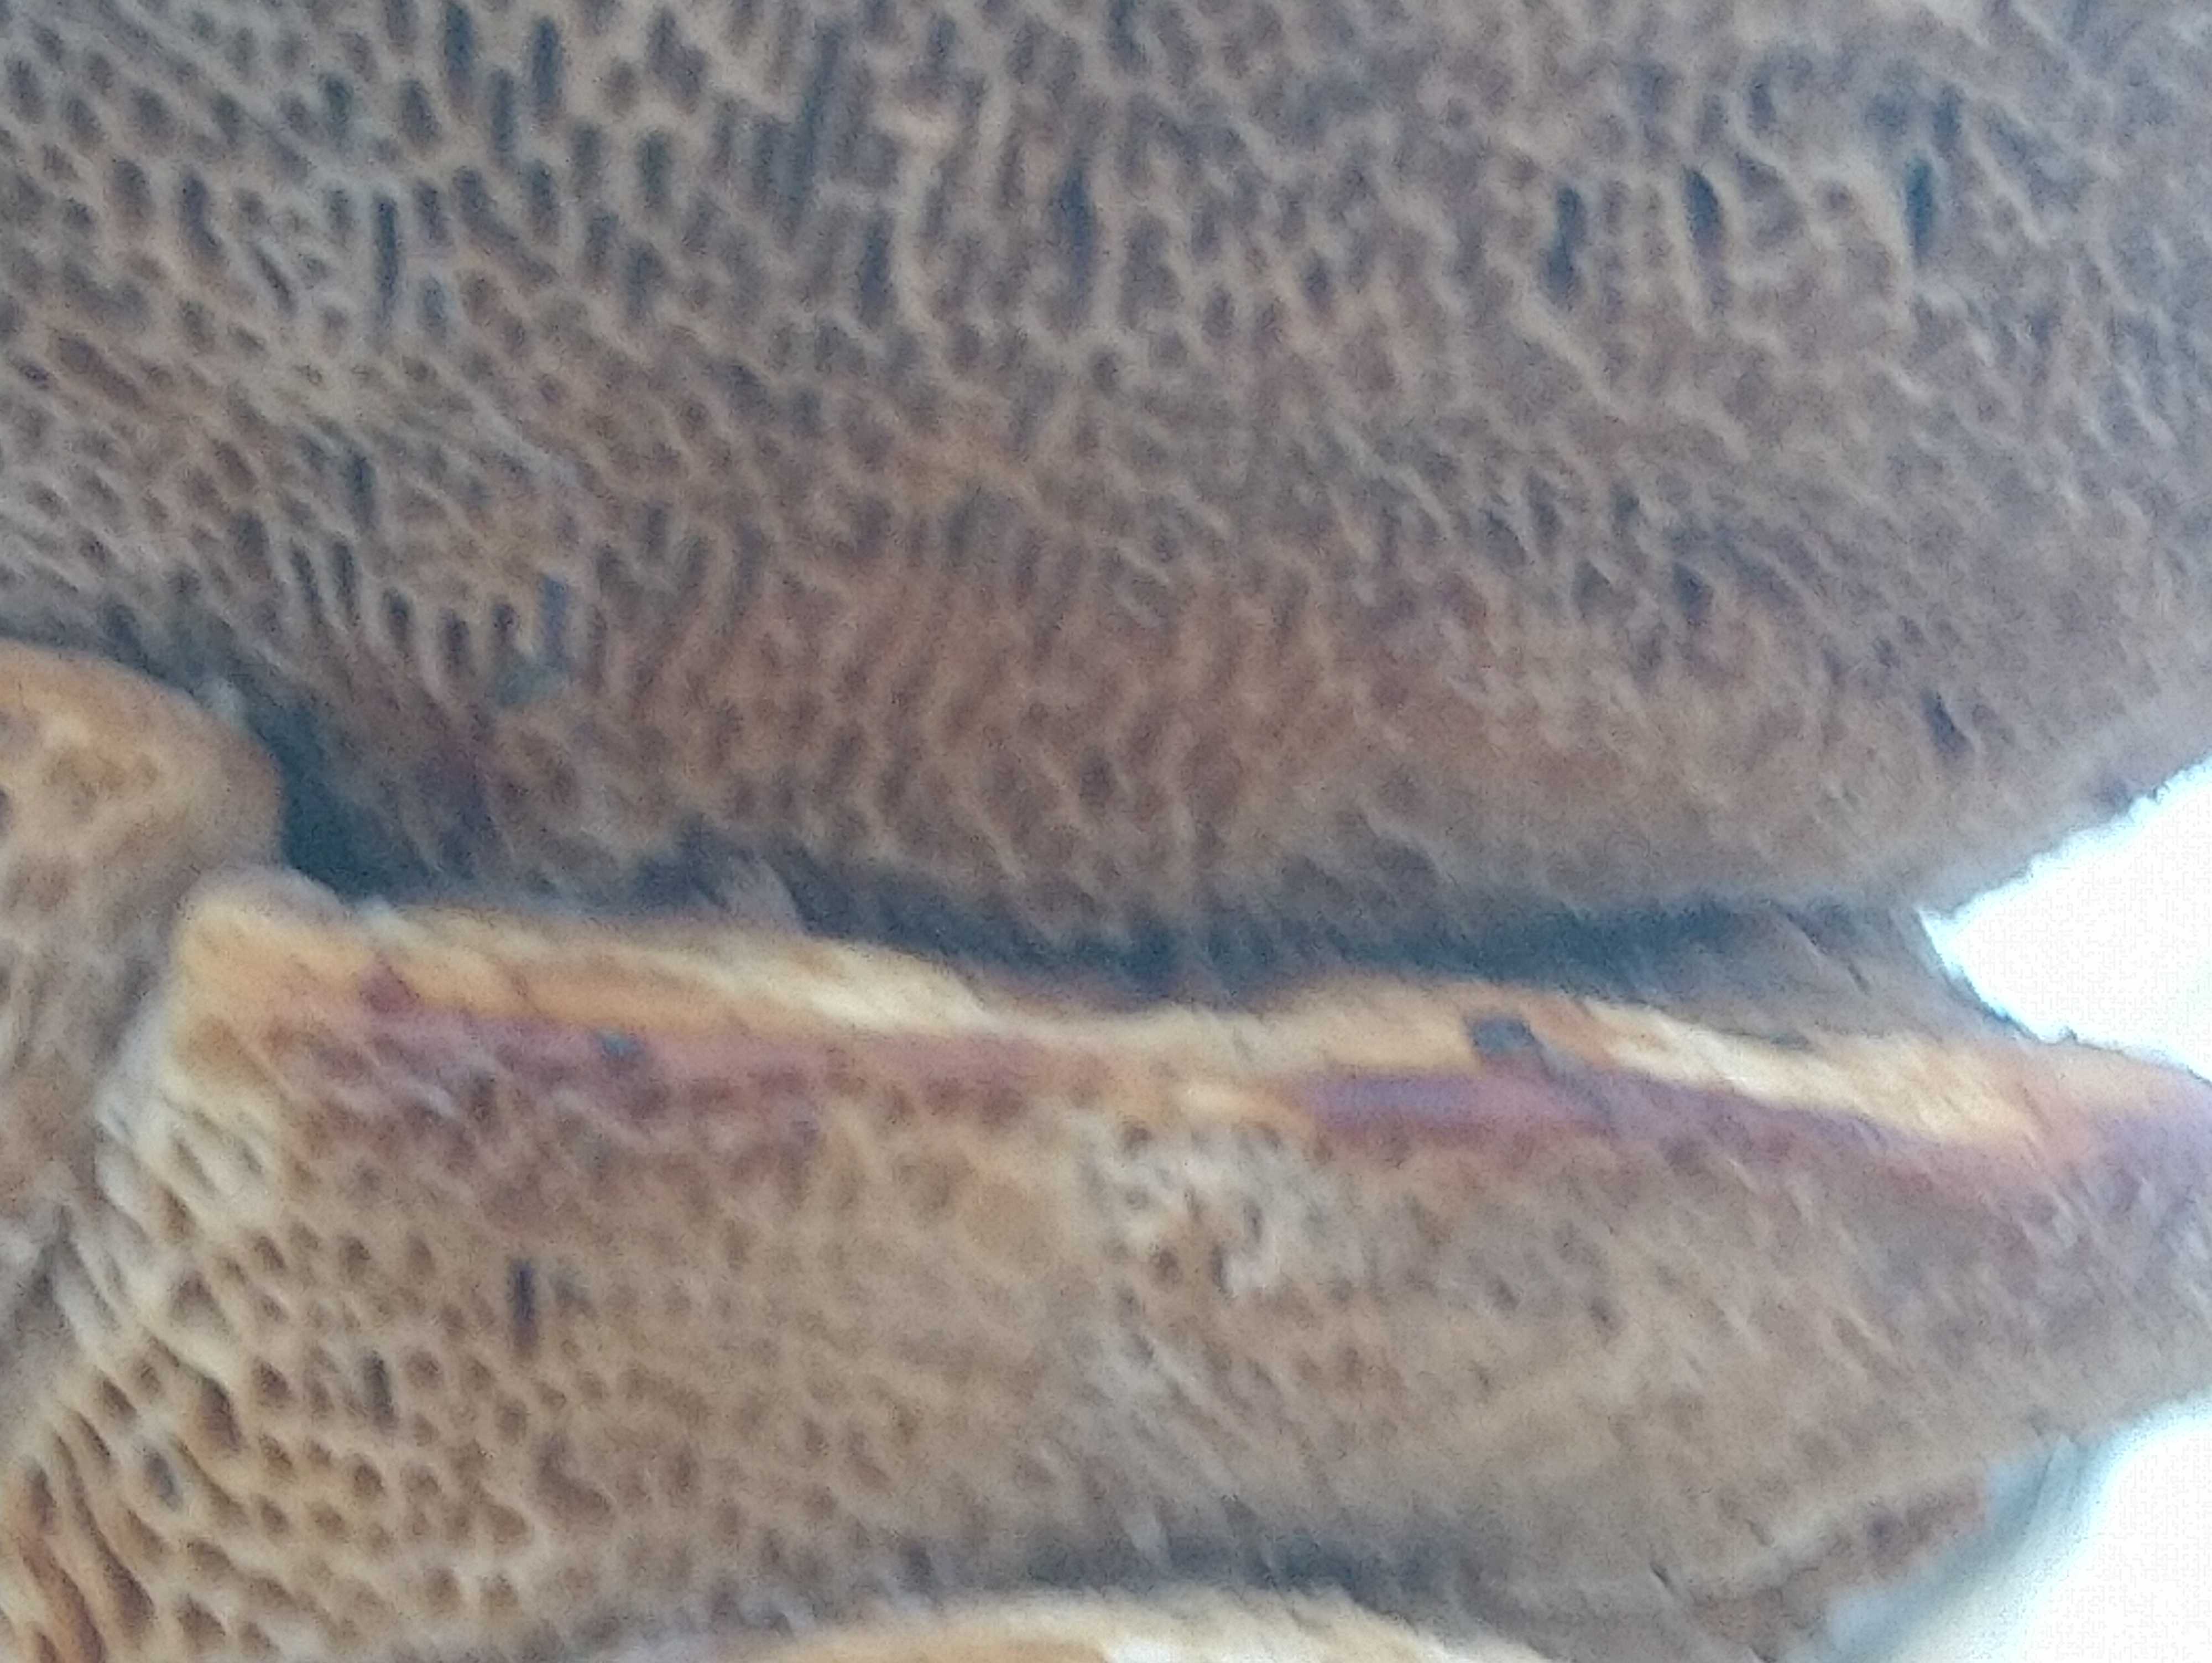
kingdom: Fungi
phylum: Basidiomycota
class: Agaricomycetes
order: Polyporales
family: Polyporaceae
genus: Daedaleopsis
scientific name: Daedaleopsis confragosa
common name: rødmende læderporesvamp
